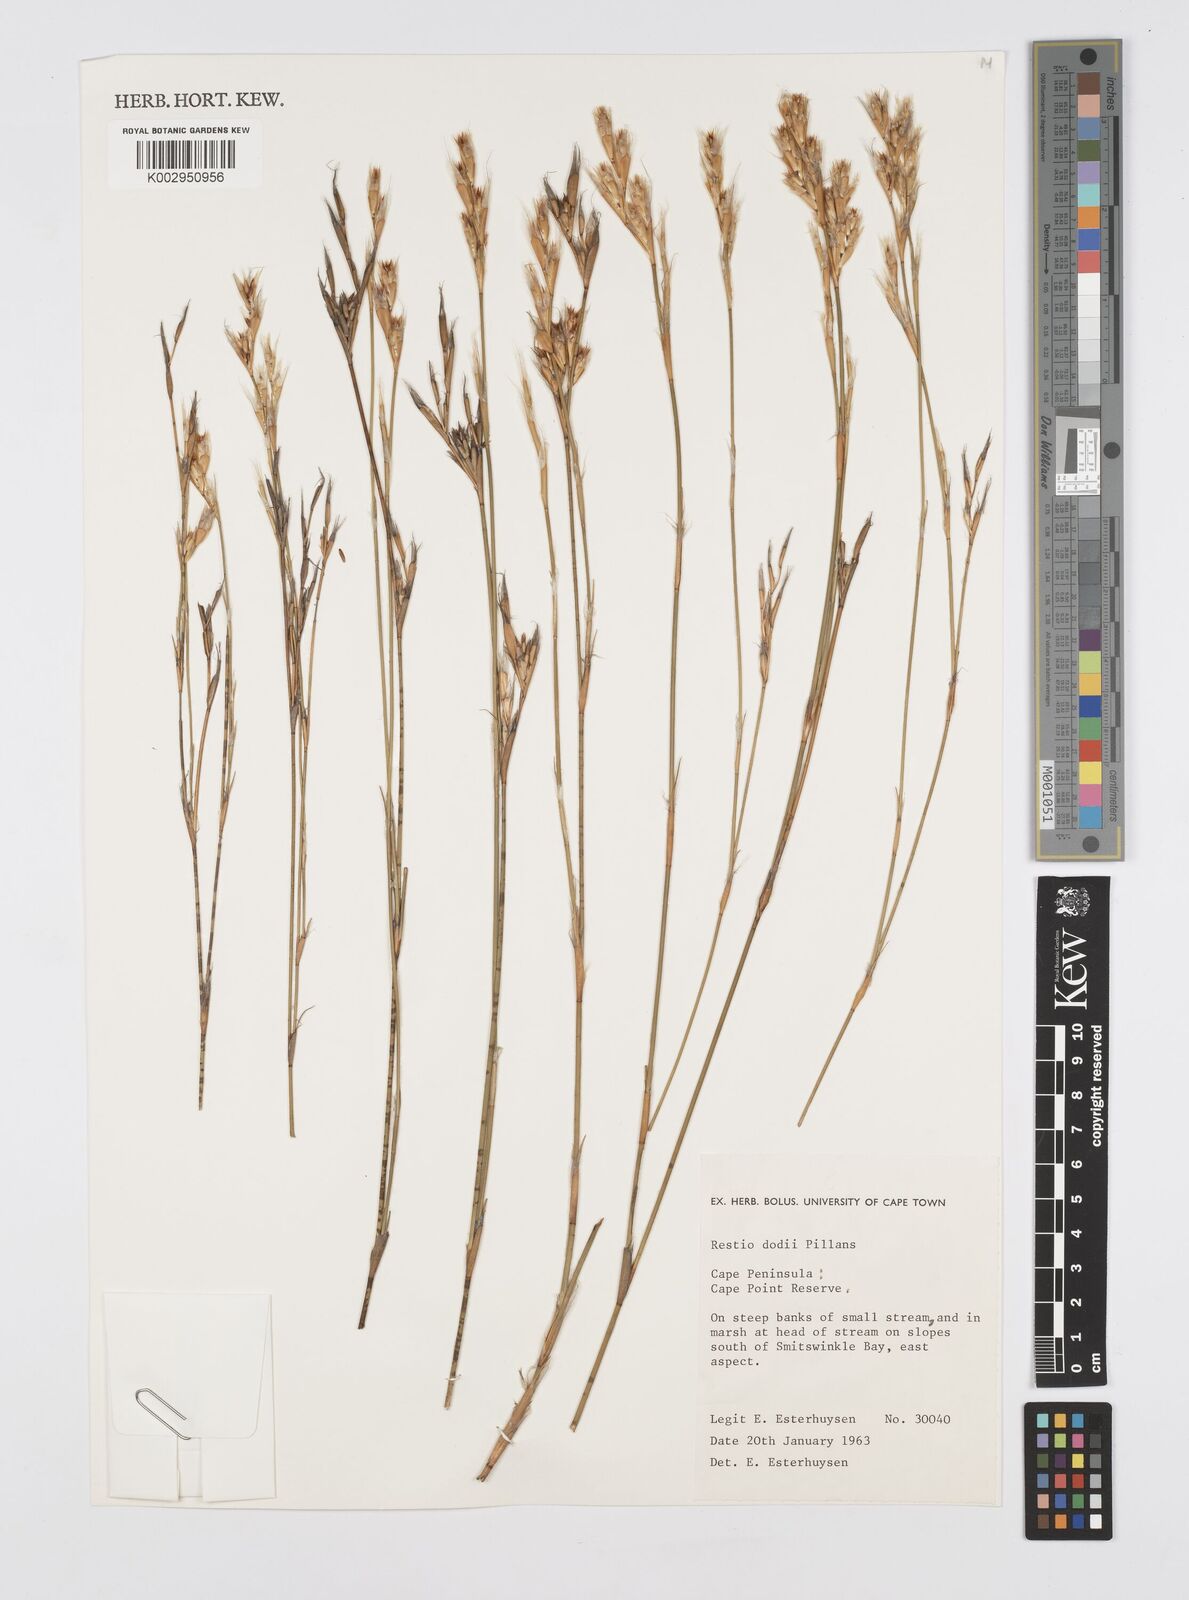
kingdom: Plantae
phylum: Tracheophyta
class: Liliopsida
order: Poales
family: Restionaceae
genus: Restio
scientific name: Restio dodii
